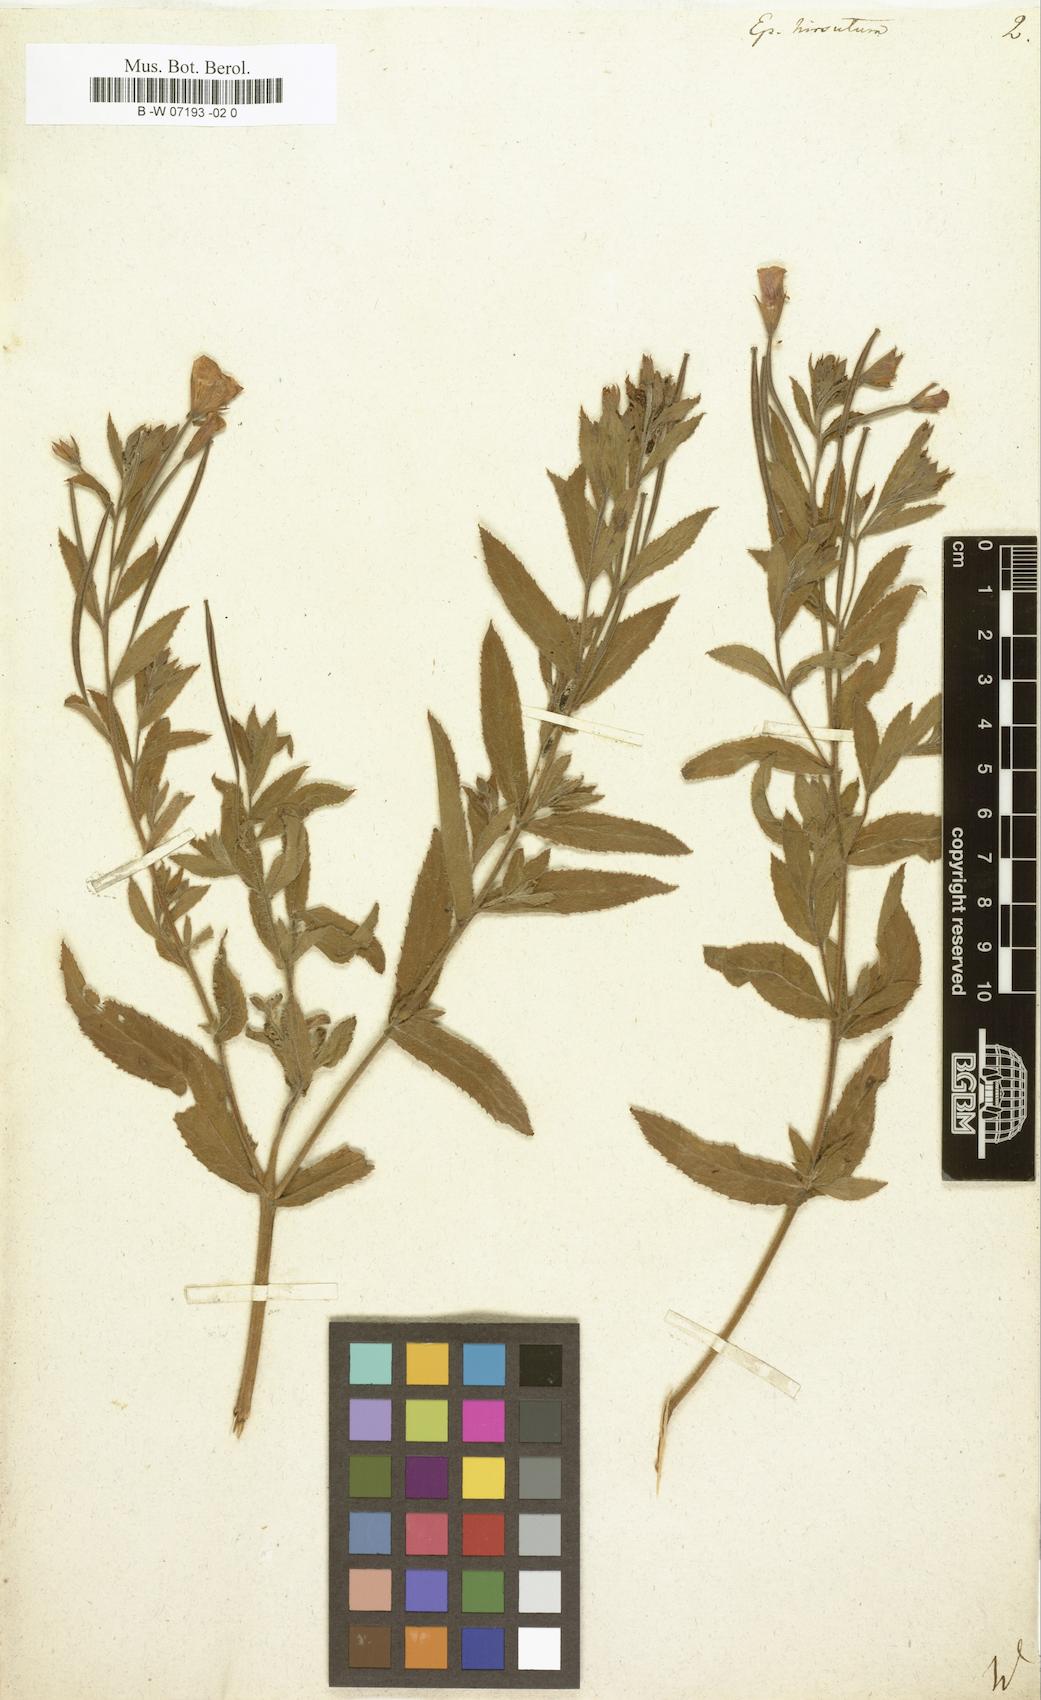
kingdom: Plantae
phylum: Tracheophyta
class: Magnoliopsida
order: Myrtales
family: Onagraceae
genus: Epilobium
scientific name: Epilobium hirsutum
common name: Great willowherb
